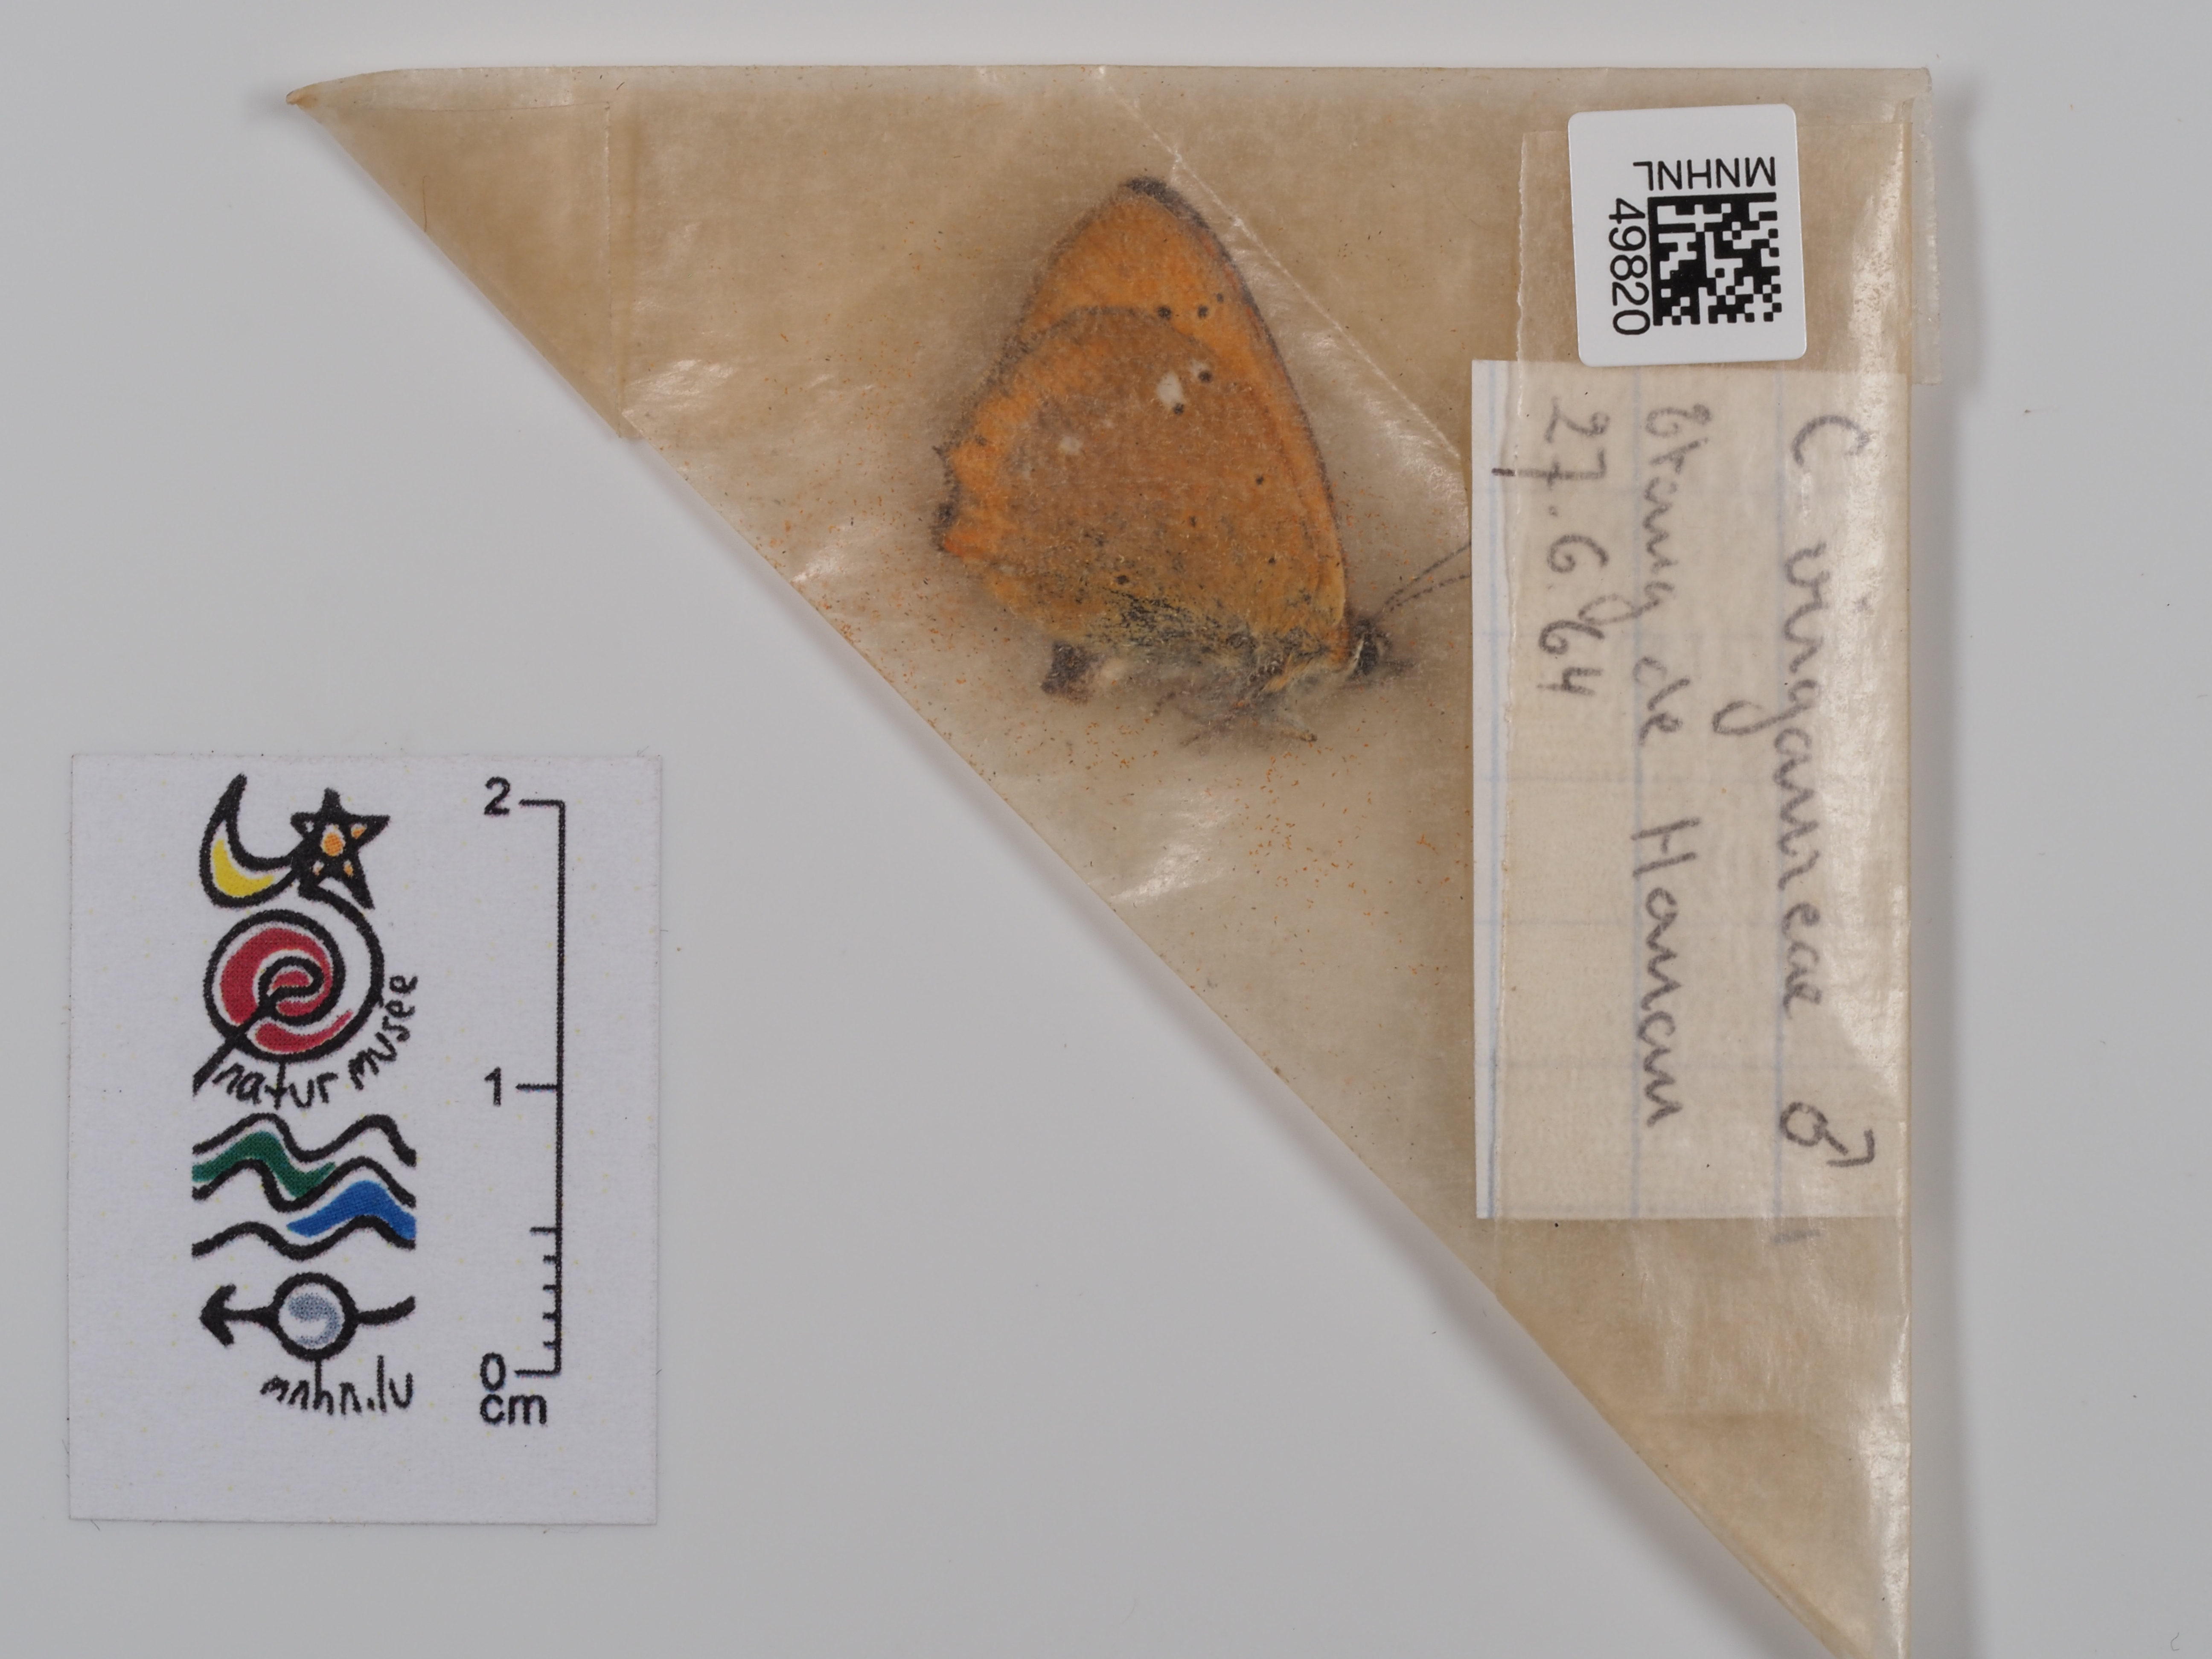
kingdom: Animalia
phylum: Arthropoda
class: Insecta
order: Lepidoptera
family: Lycaenidae
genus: Lycaena
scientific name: Lycaena virgaureae
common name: Scarce copper
